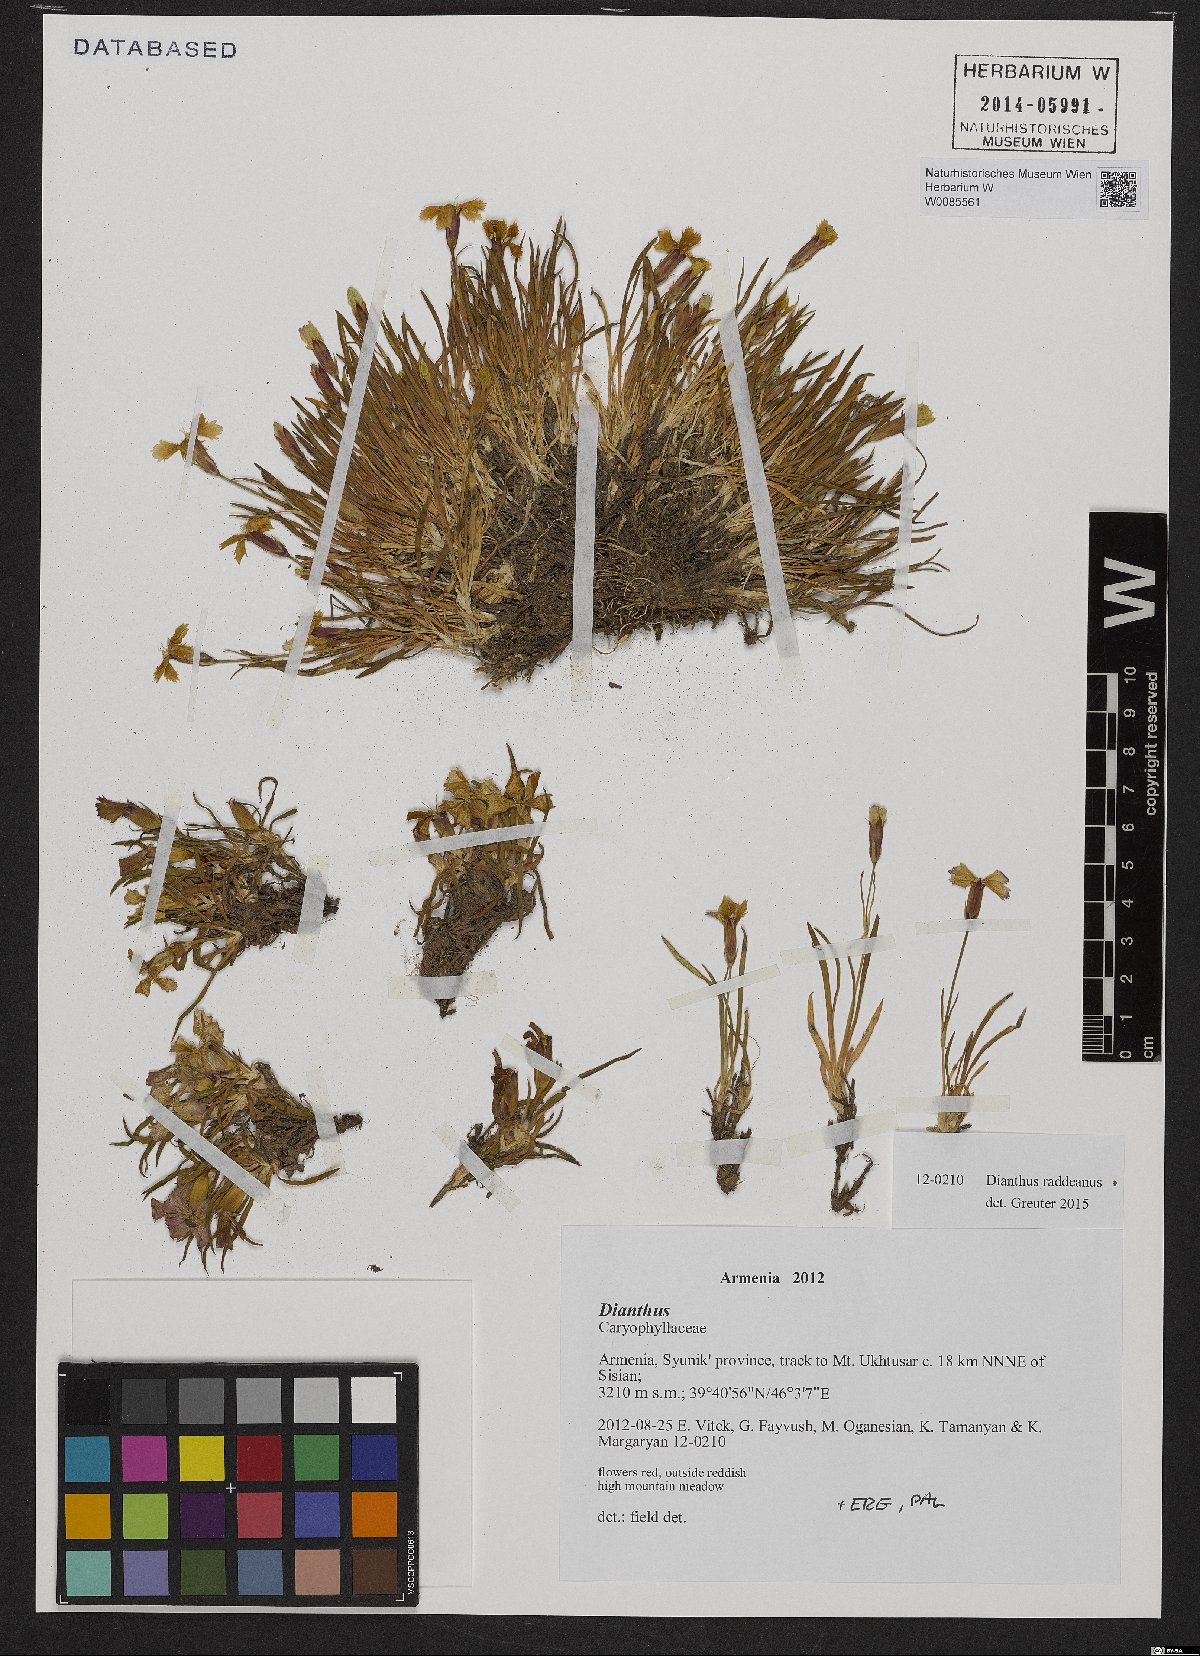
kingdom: Plantae
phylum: Tracheophyta
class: Magnoliopsida
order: Caryophyllales
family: Caryophyllaceae
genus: Dianthus
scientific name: Dianthus raddeanus
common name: Radde's pink
